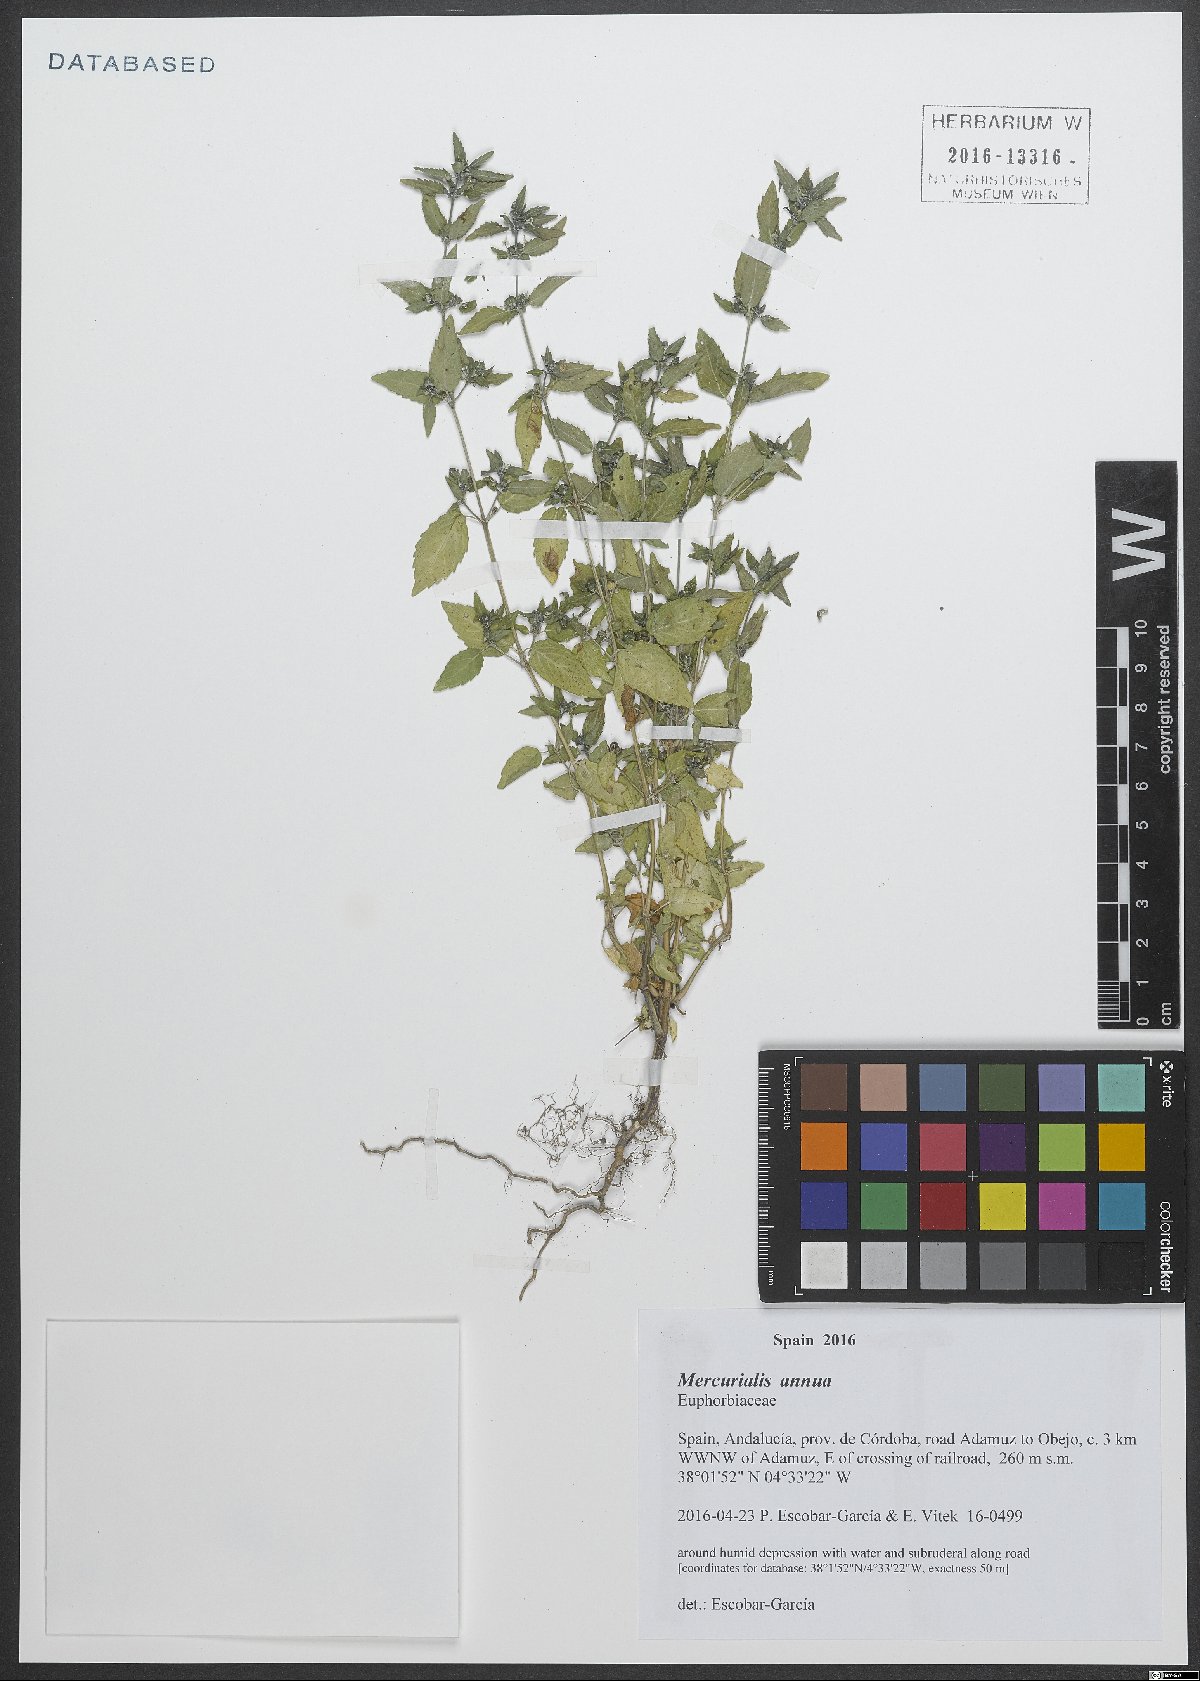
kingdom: Plantae
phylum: Tracheophyta
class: Magnoliopsida
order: Malpighiales
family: Euphorbiaceae
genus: Mercurialis
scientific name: Mercurialis annua
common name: Annual mercury
